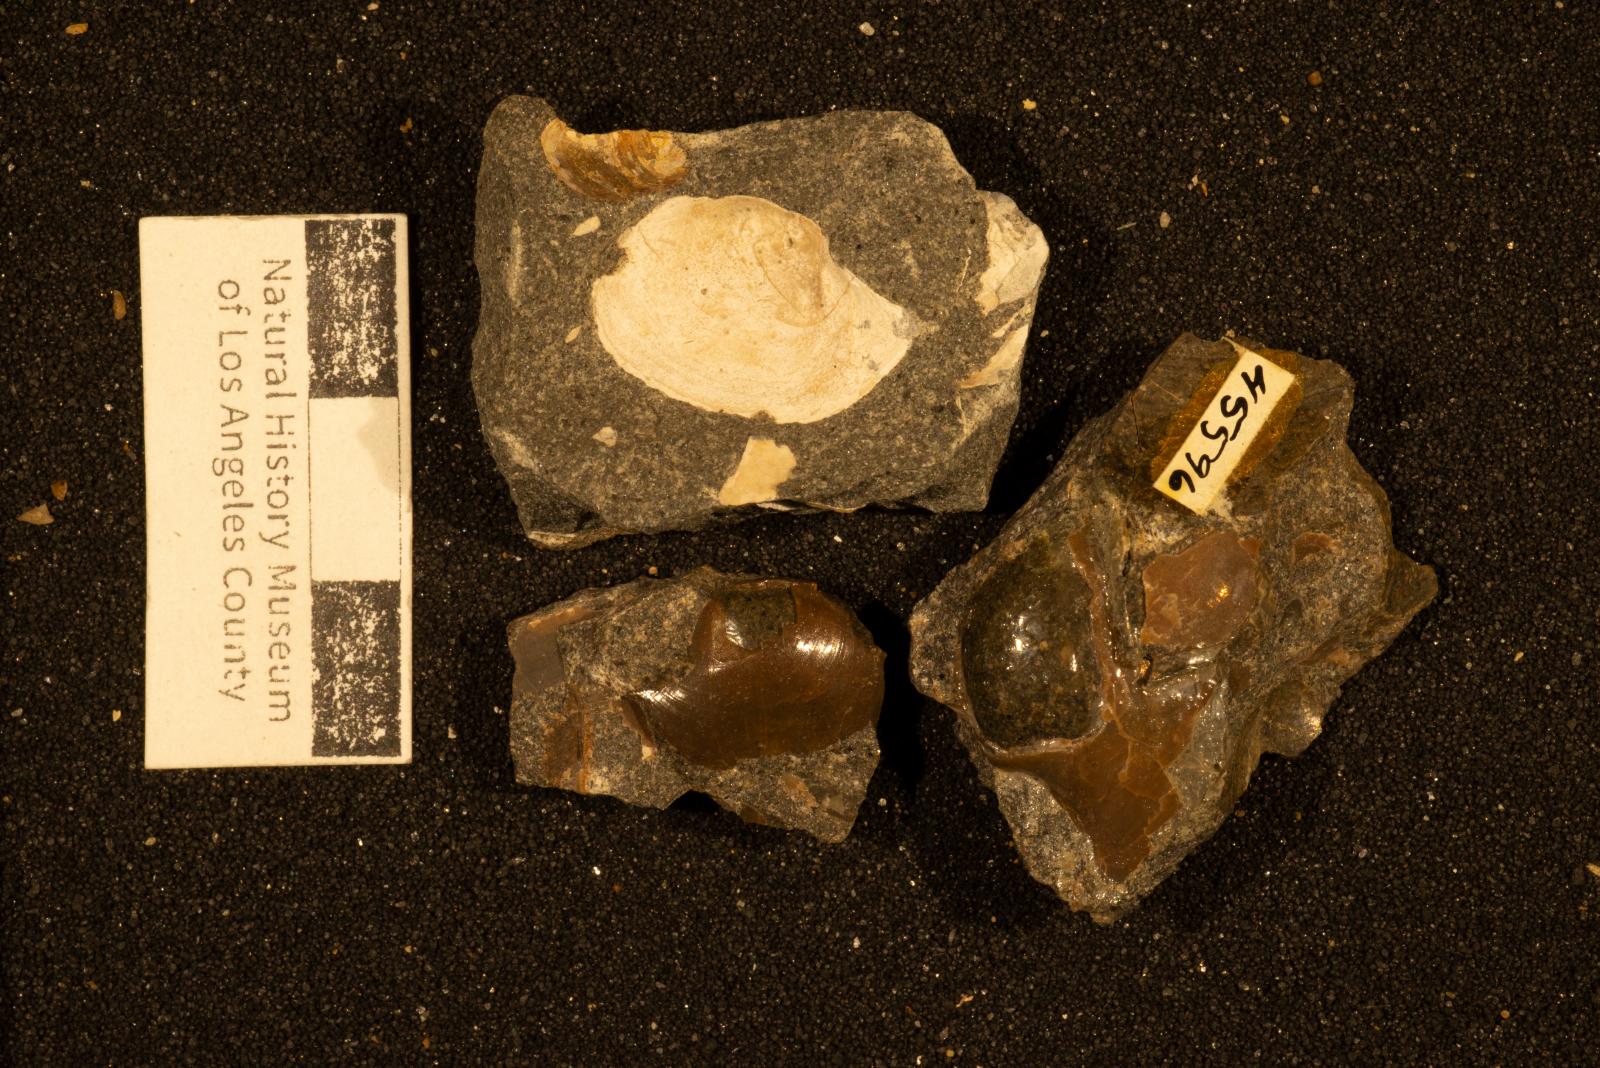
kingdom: Animalia
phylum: Mollusca
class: Bivalvia
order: Cardiida
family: Tancrediidae
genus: Meekia
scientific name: Meekia mygale
